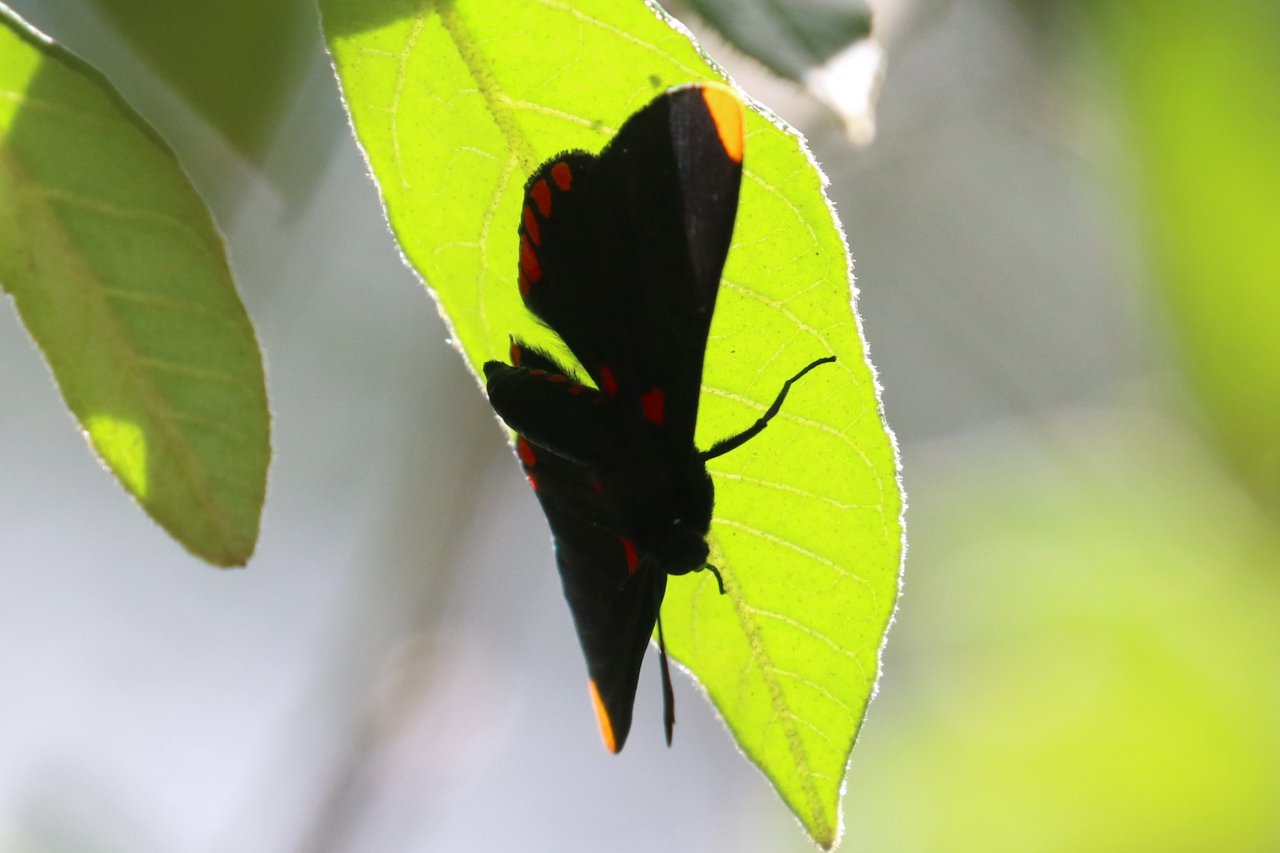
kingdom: Animalia
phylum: Arthropoda
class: Insecta
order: Lepidoptera
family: Lycaenidae
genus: Melanis
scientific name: Melanis pixe
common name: Red-bordered Pixie
